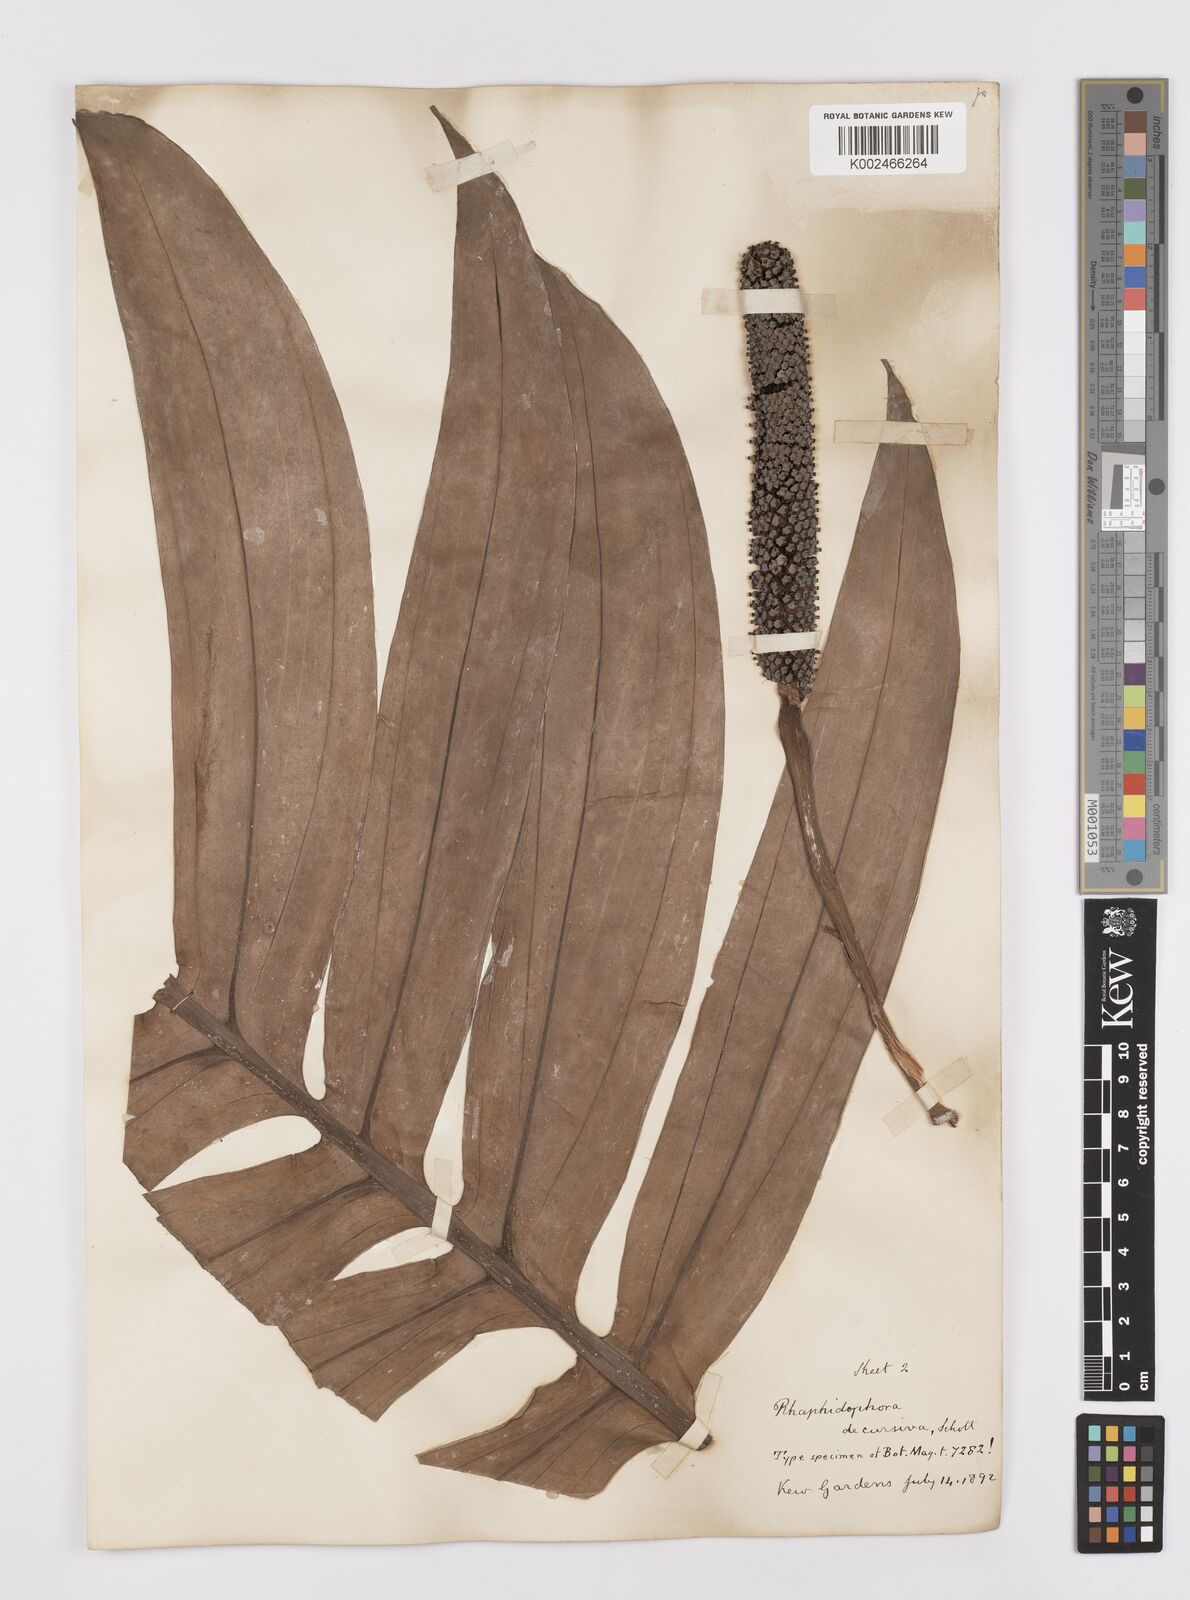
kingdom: Plantae
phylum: Tracheophyta
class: Liliopsida
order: Alismatales
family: Araceae
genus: Rhaphidophora
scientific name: Rhaphidophora decursiva
